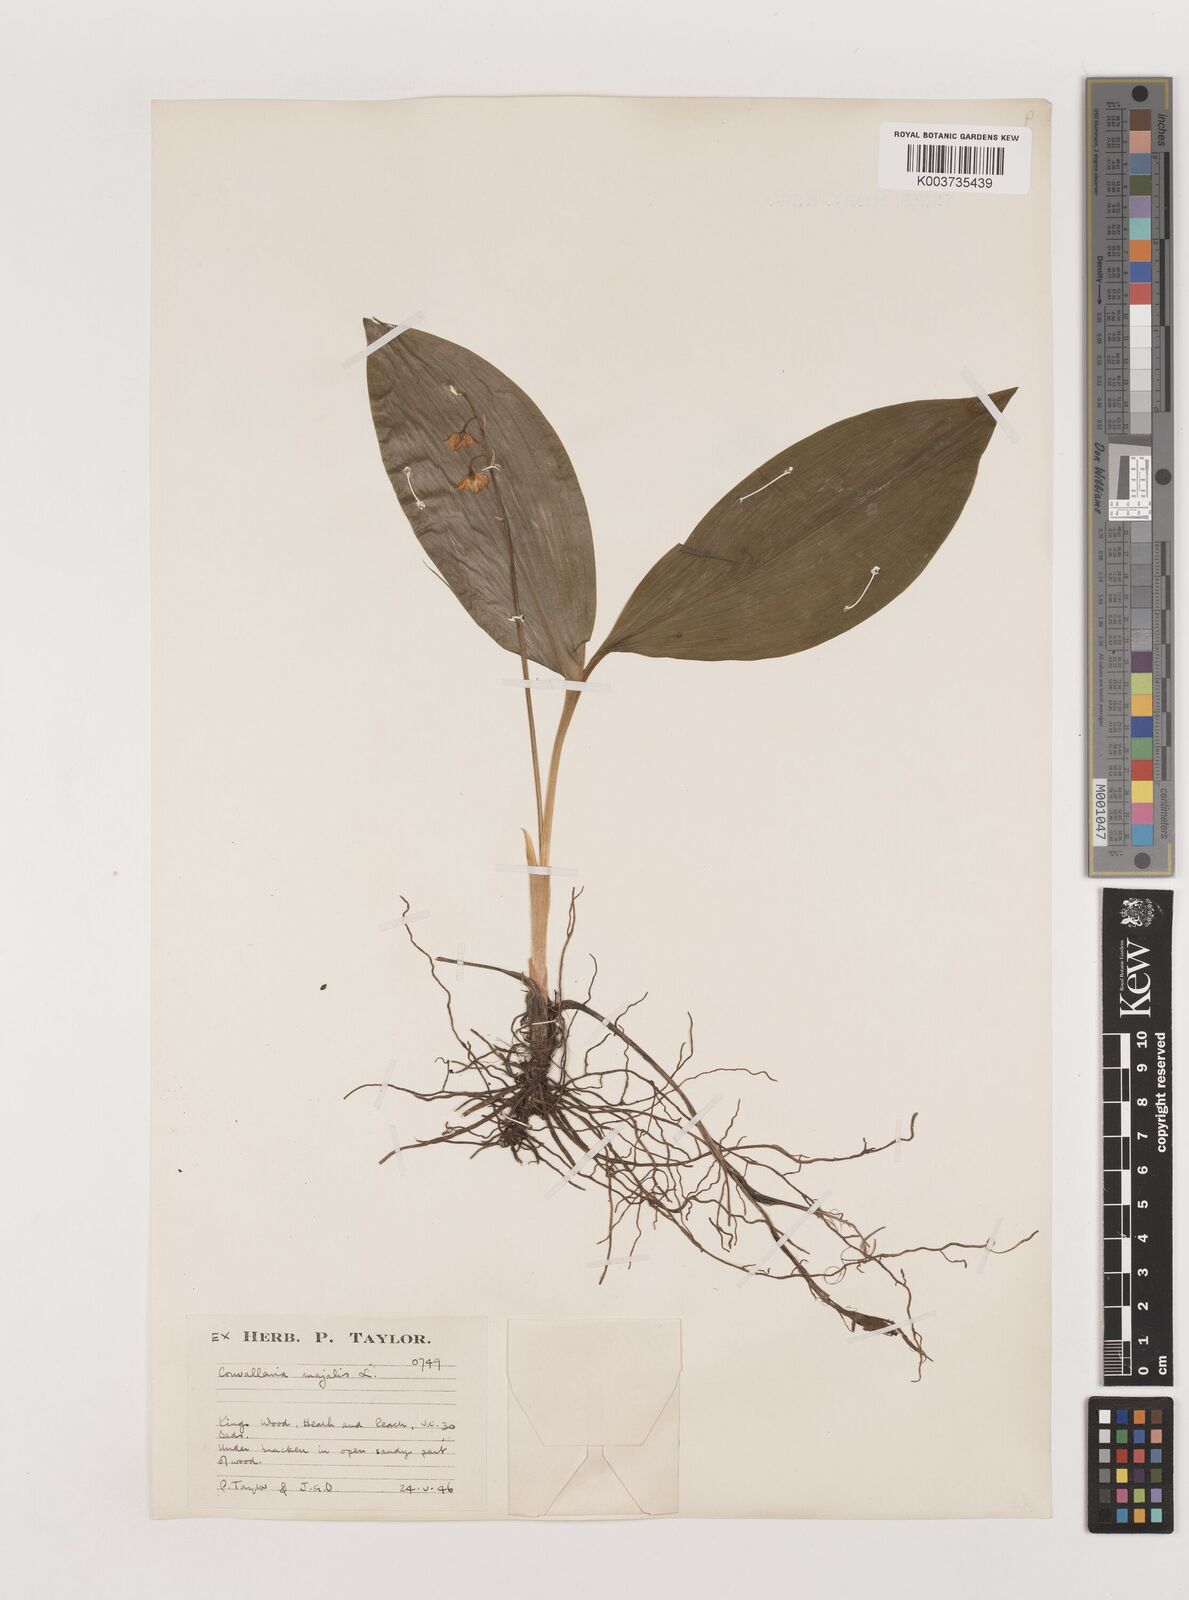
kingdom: Plantae
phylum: Tracheophyta
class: Liliopsida
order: Asparagales
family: Asparagaceae
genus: Convallaria
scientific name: Convallaria majalis
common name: Lily-of-the-valley
